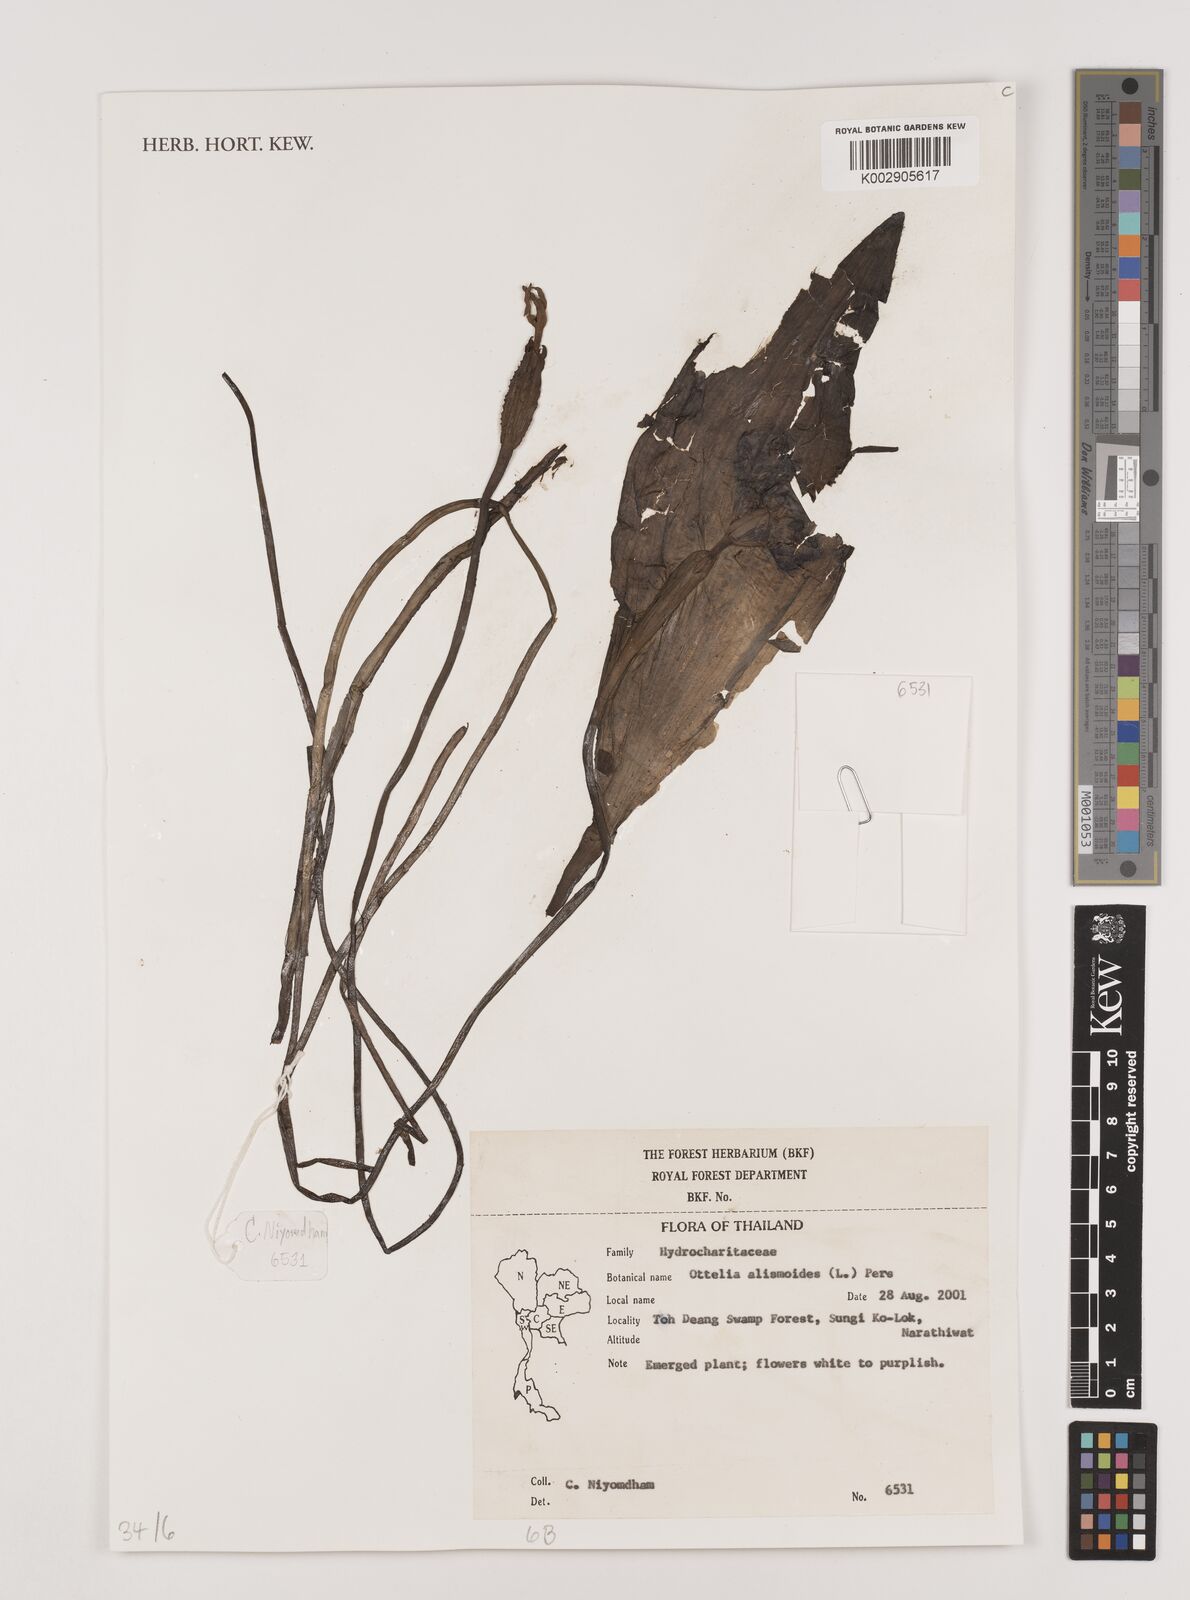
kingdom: Plantae
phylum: Tracheophyta
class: Liliopsida
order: Alismatales
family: Hydrocharitaceae
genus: Ottelia
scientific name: Ottelia alismoides
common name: Duck-lettuce
